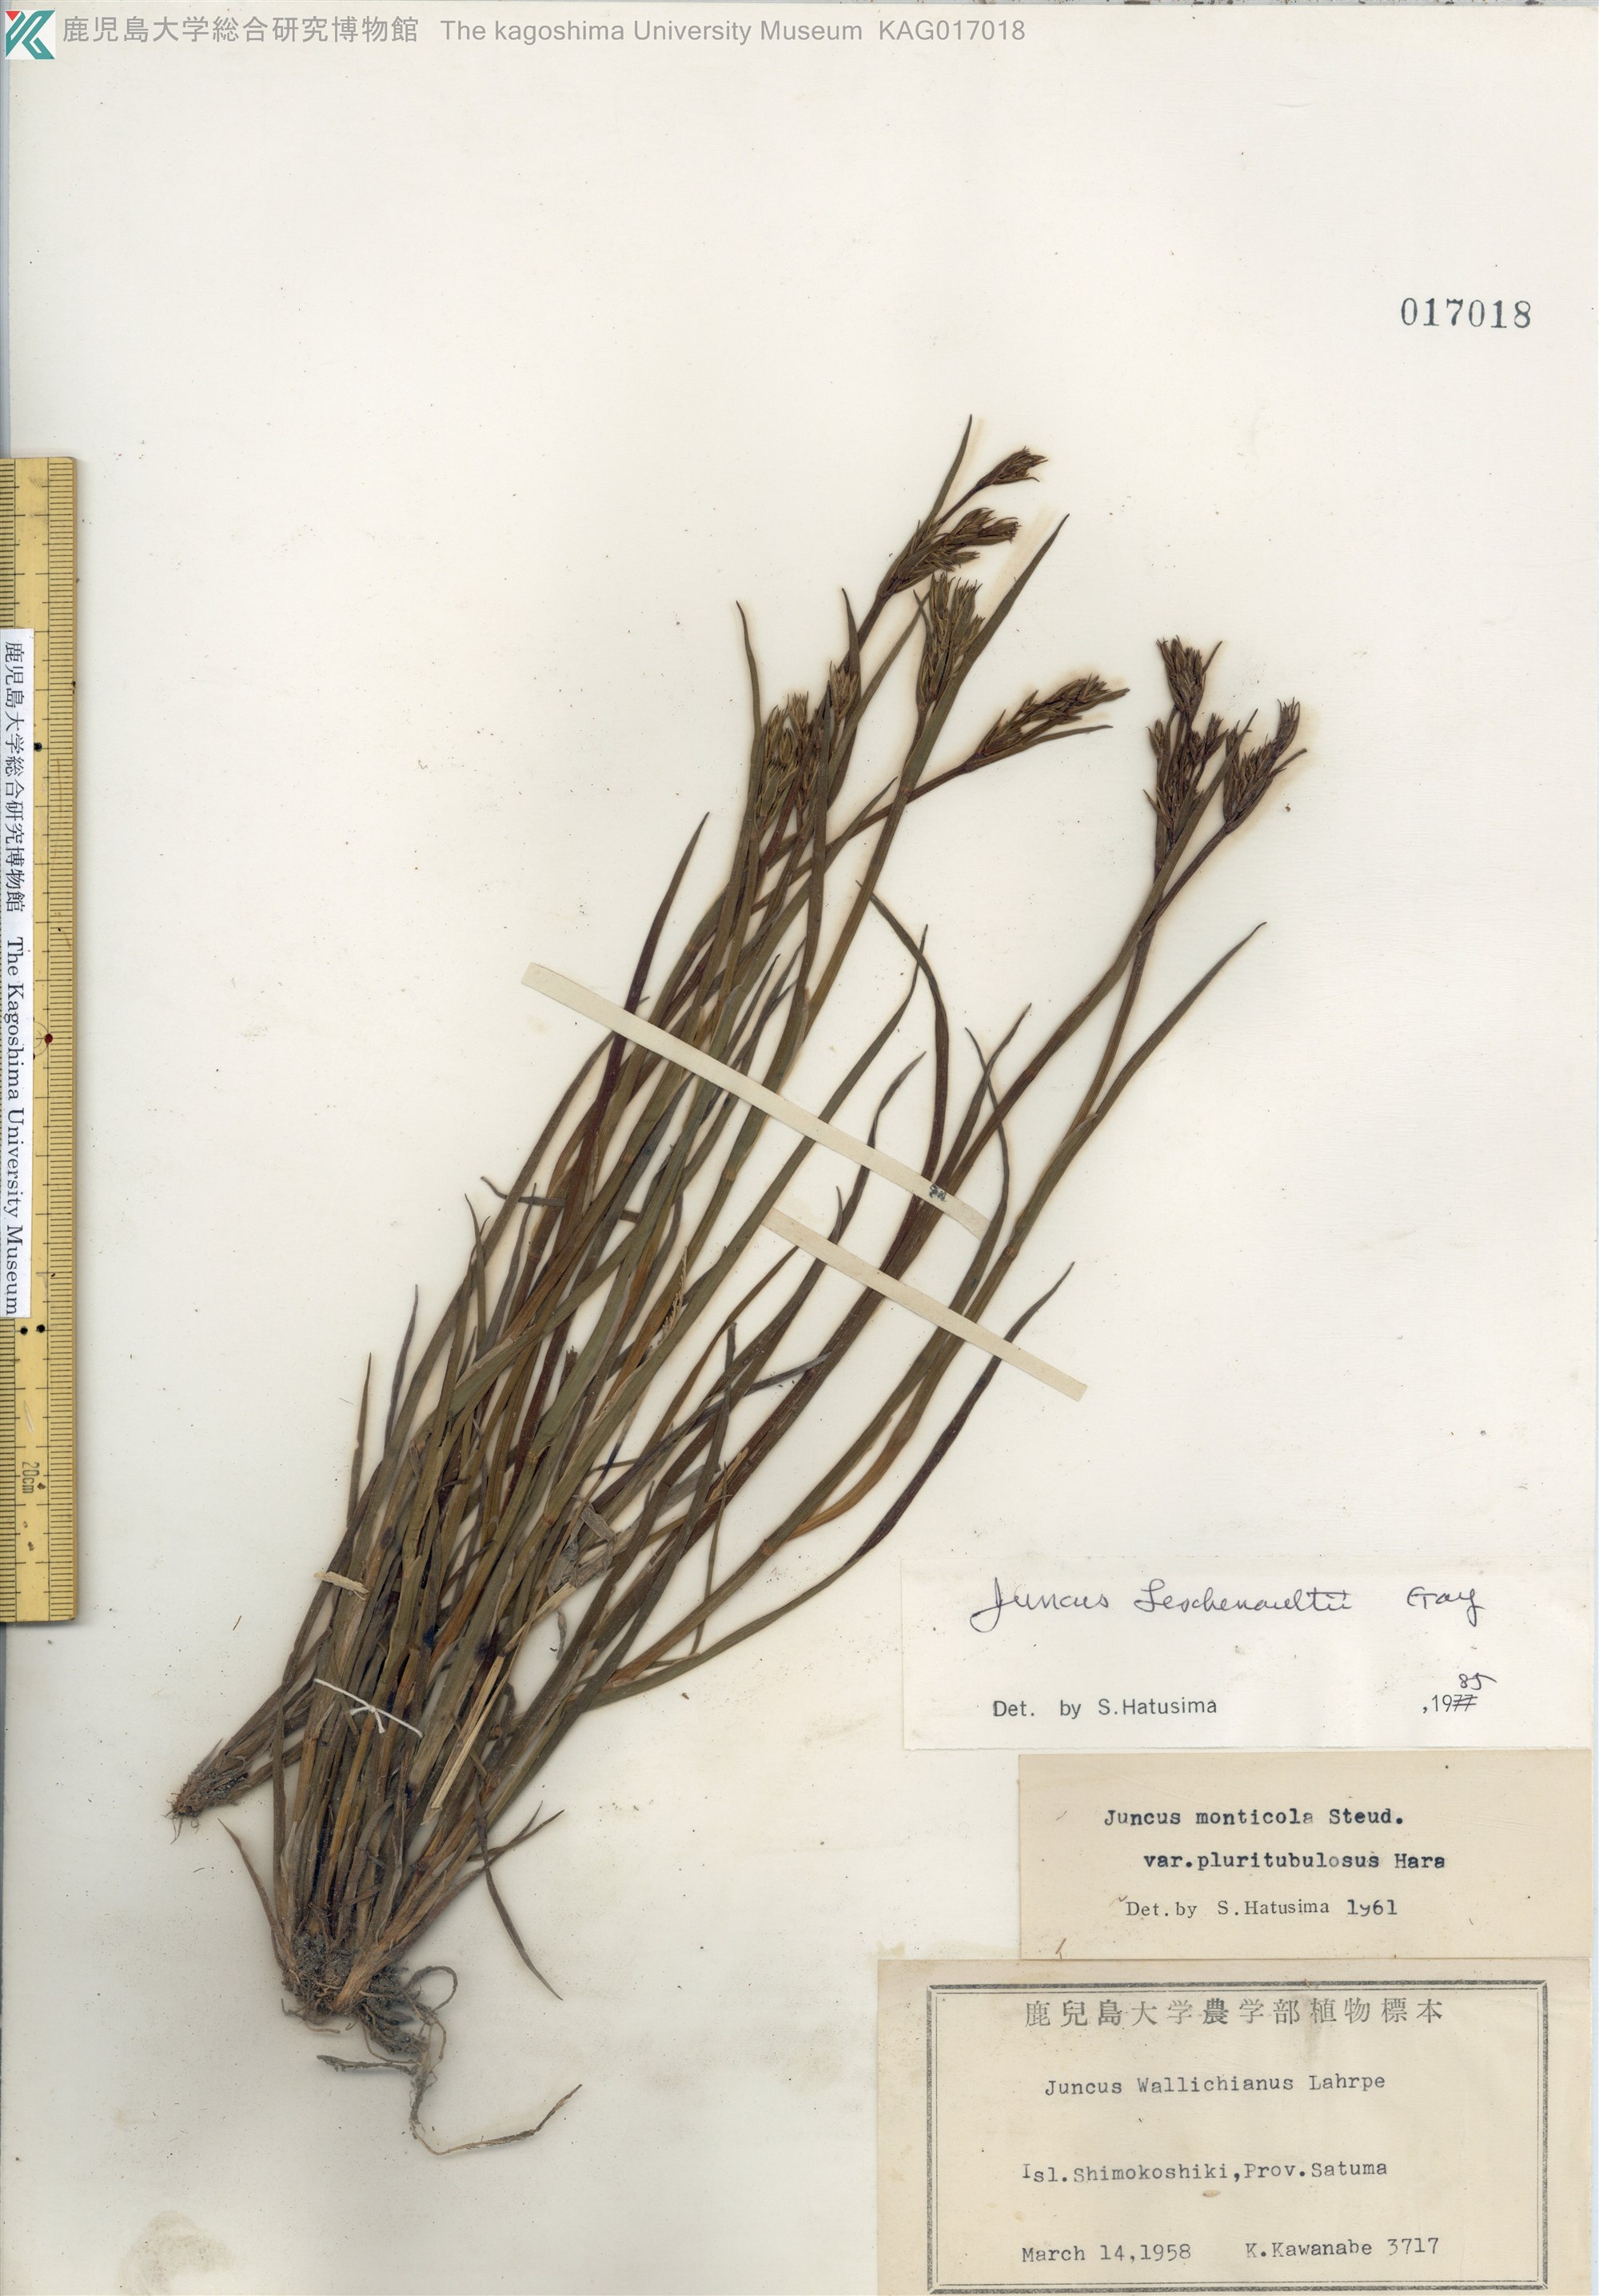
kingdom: Plantae
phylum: Tracheophyta
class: Liliopsida
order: Poales
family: Juncaceae
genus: Juncus
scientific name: Juncus prismatocarpus
